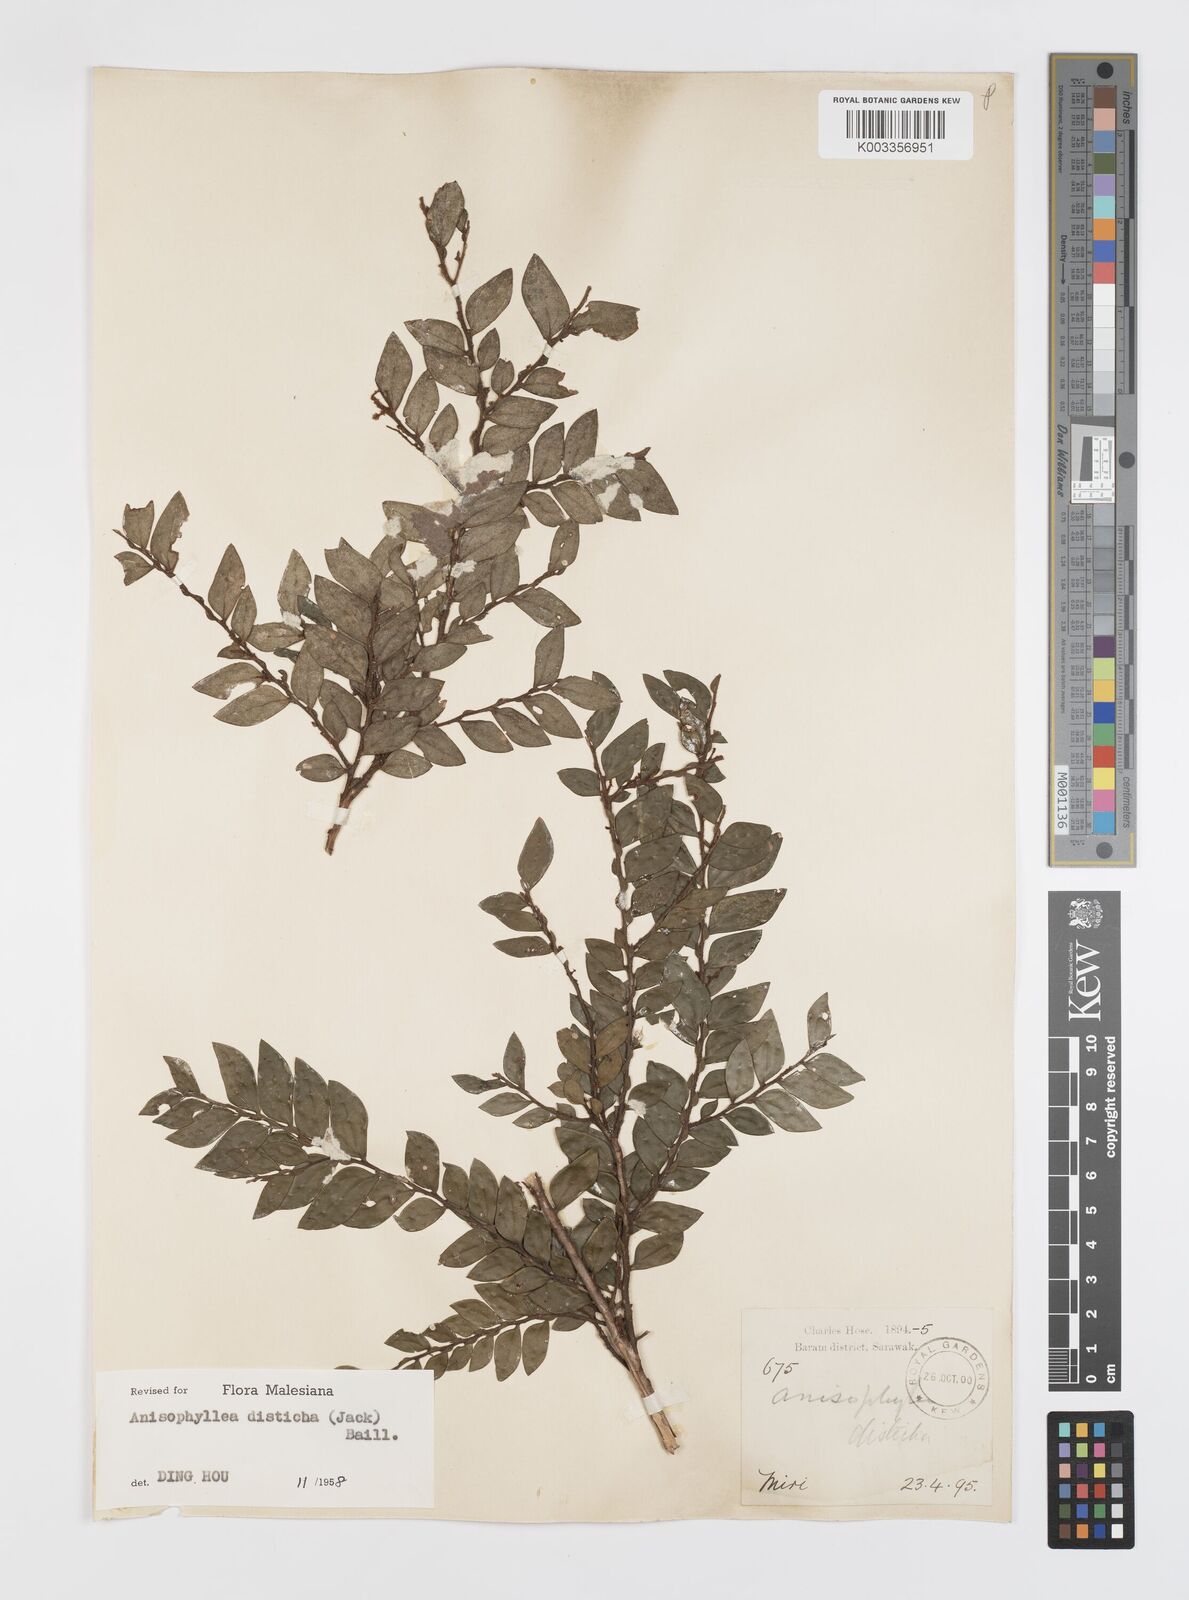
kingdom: Plantae
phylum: Tracheophyta
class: Magnoliopsida
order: Cucurbitales
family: Anisophylleaceae
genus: Anisophyllea
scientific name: Anisophyllea disticha
